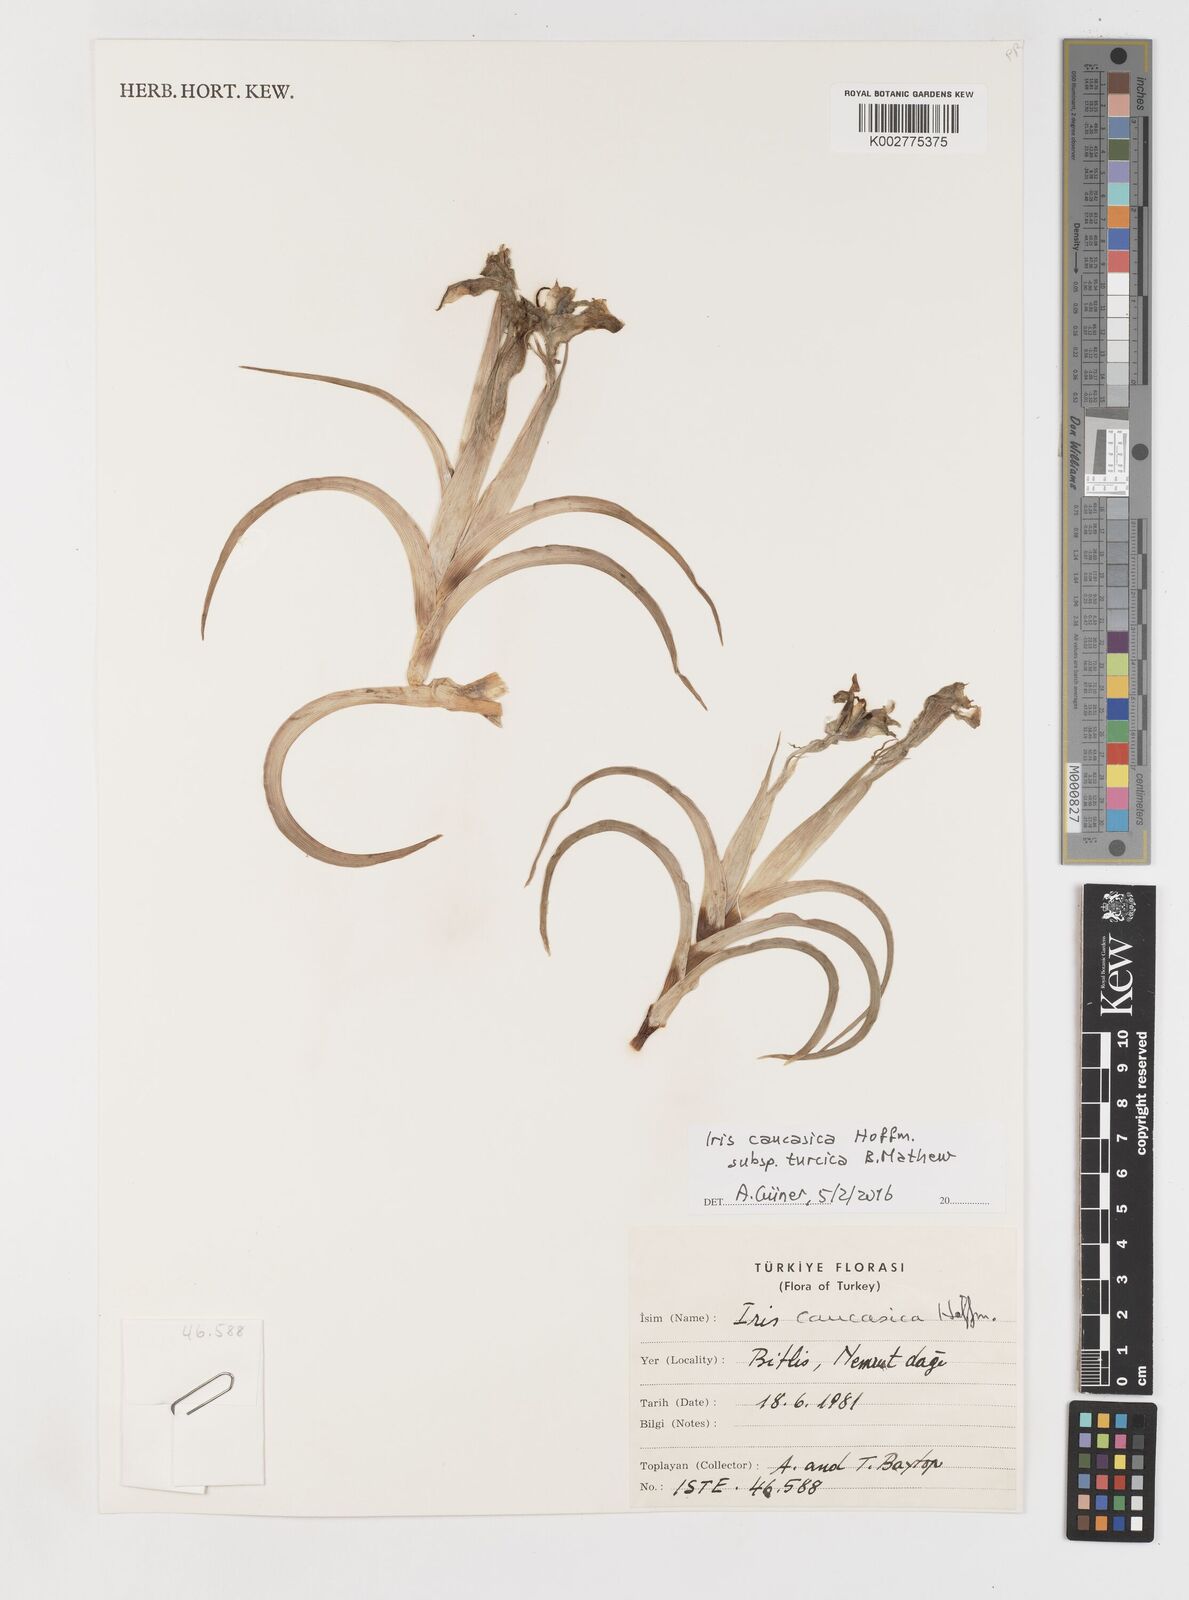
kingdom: Plantae
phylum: Tracheophyta
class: Liliopsida
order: Asparagales
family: Iridaceae
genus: Iris
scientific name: Iris caucasica
